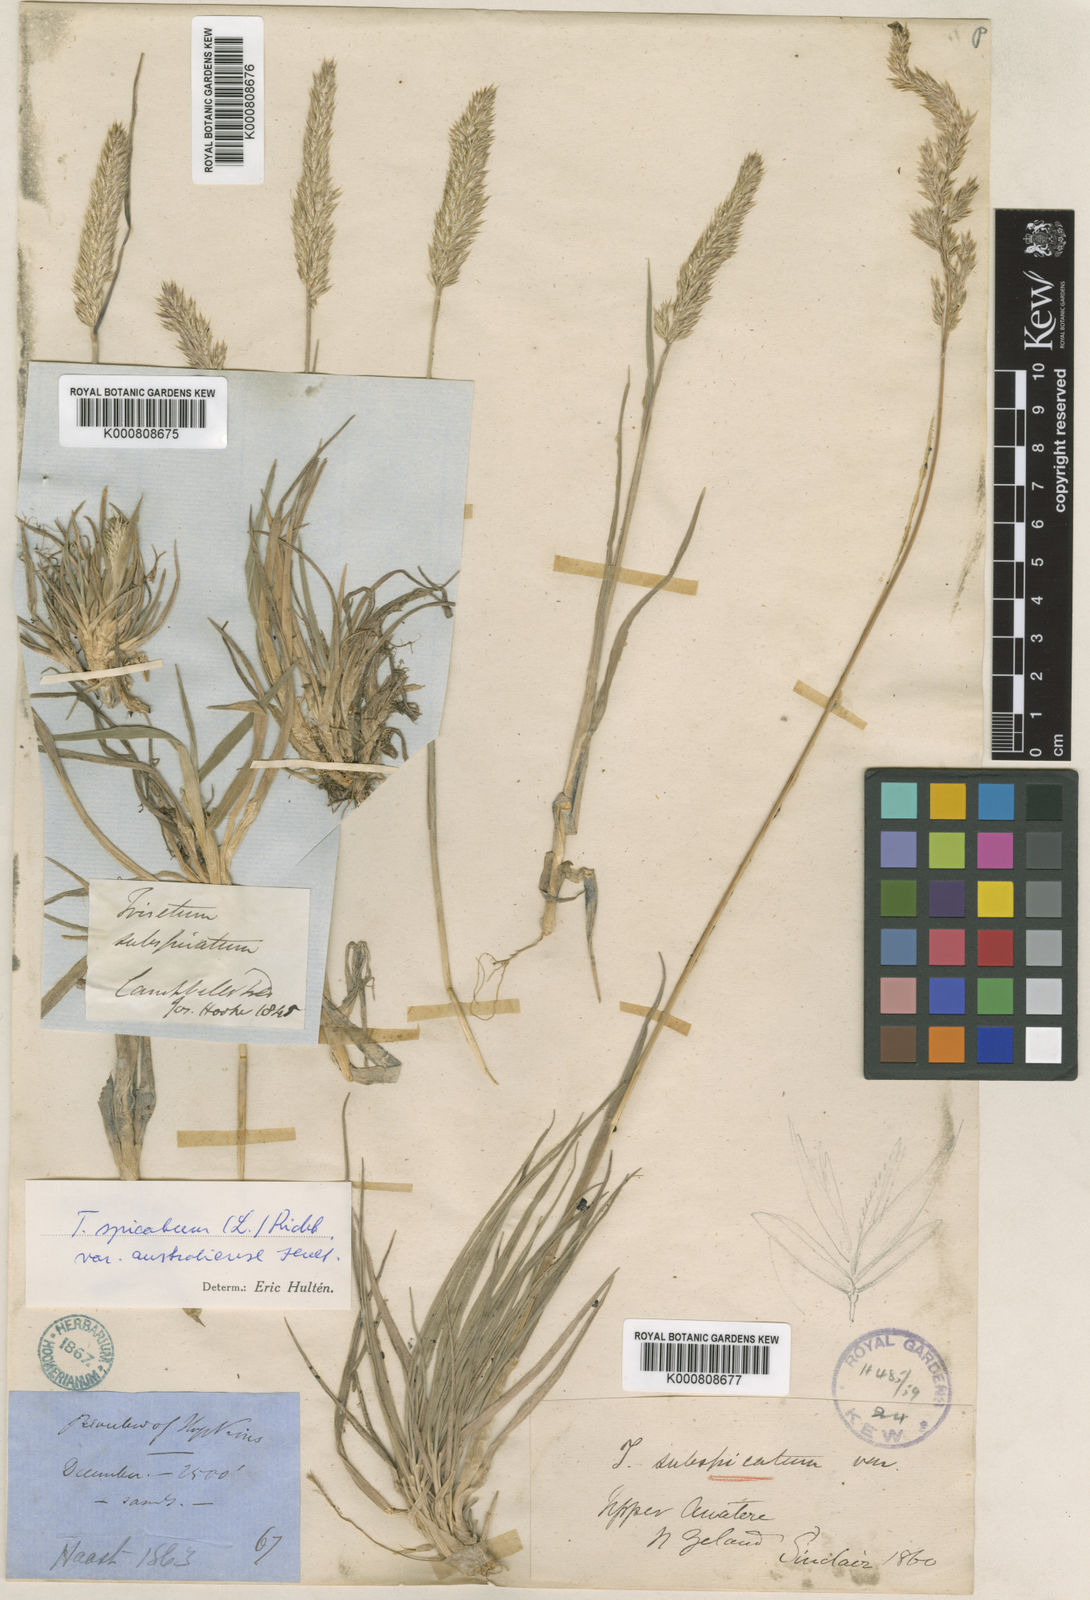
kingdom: Plantae
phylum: Tracheophyta
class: Liliopsida
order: Poales
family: Poaceae
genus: Koeleria
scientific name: Koeleria spicata
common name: Mountain trisetum
